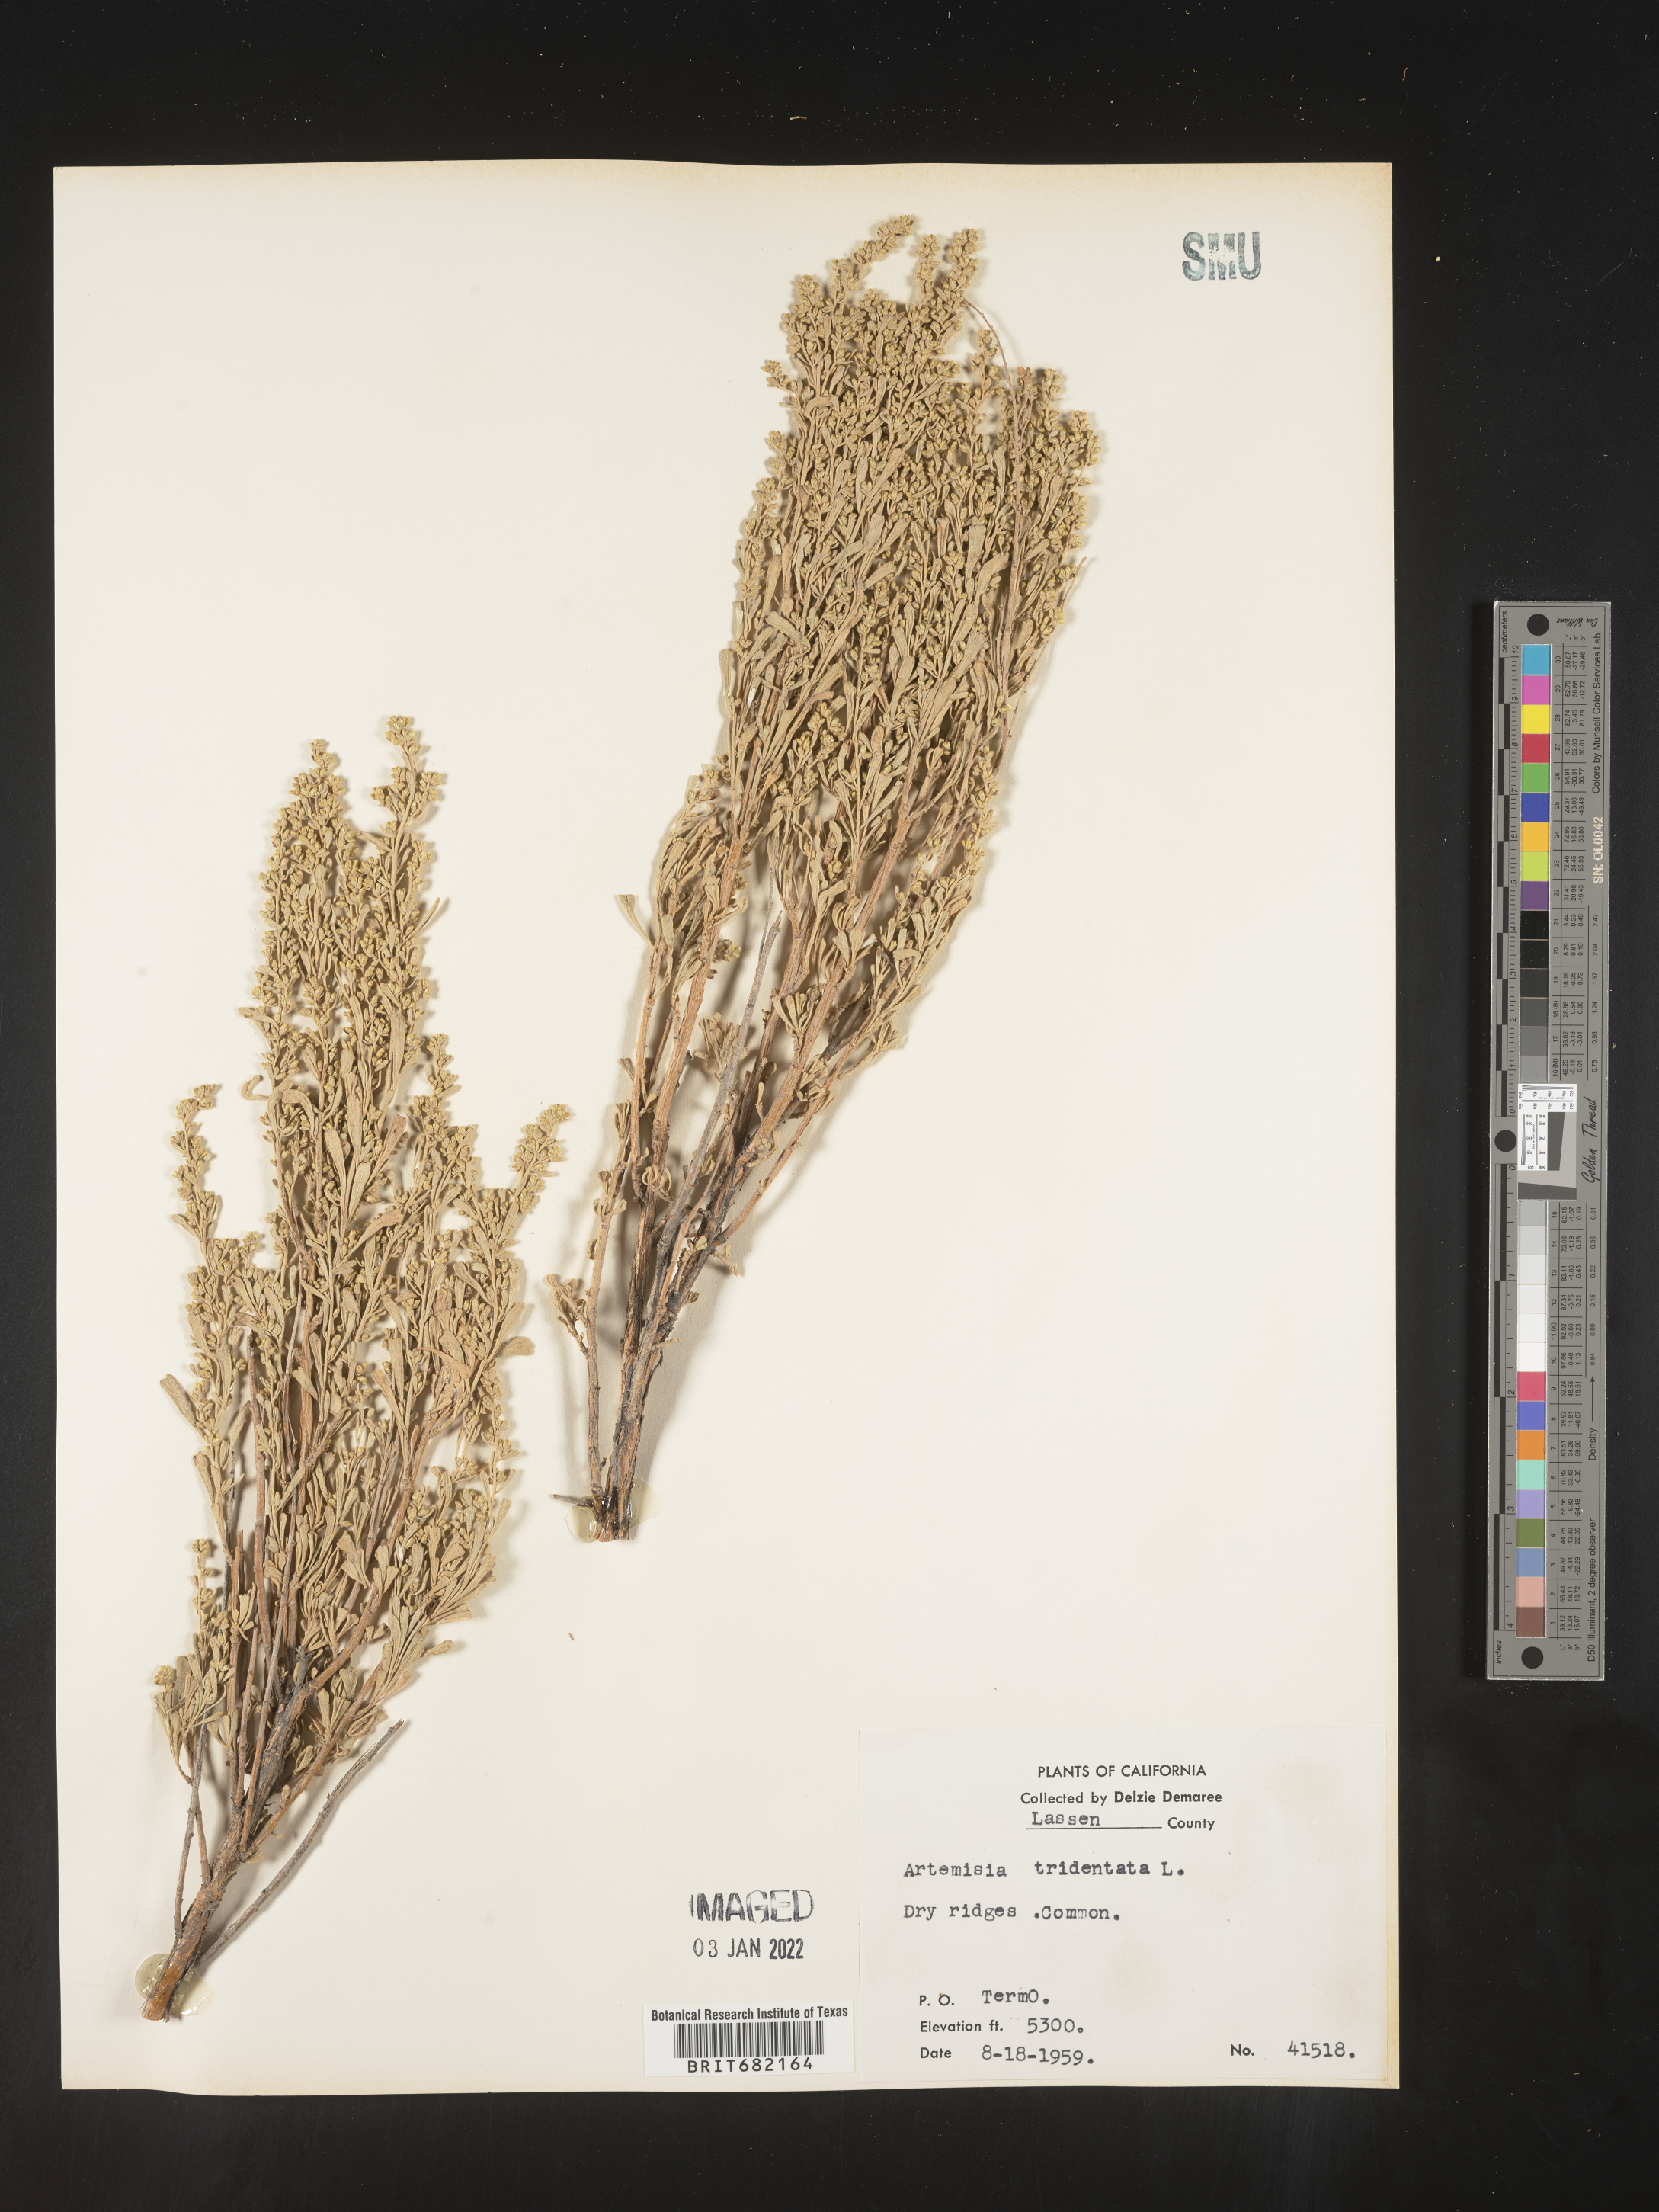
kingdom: Plantae
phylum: Tracheophyta
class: Magnoliopsida
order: Asterales
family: Asteraceae
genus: Artemisia
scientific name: Artemisia tridentata
